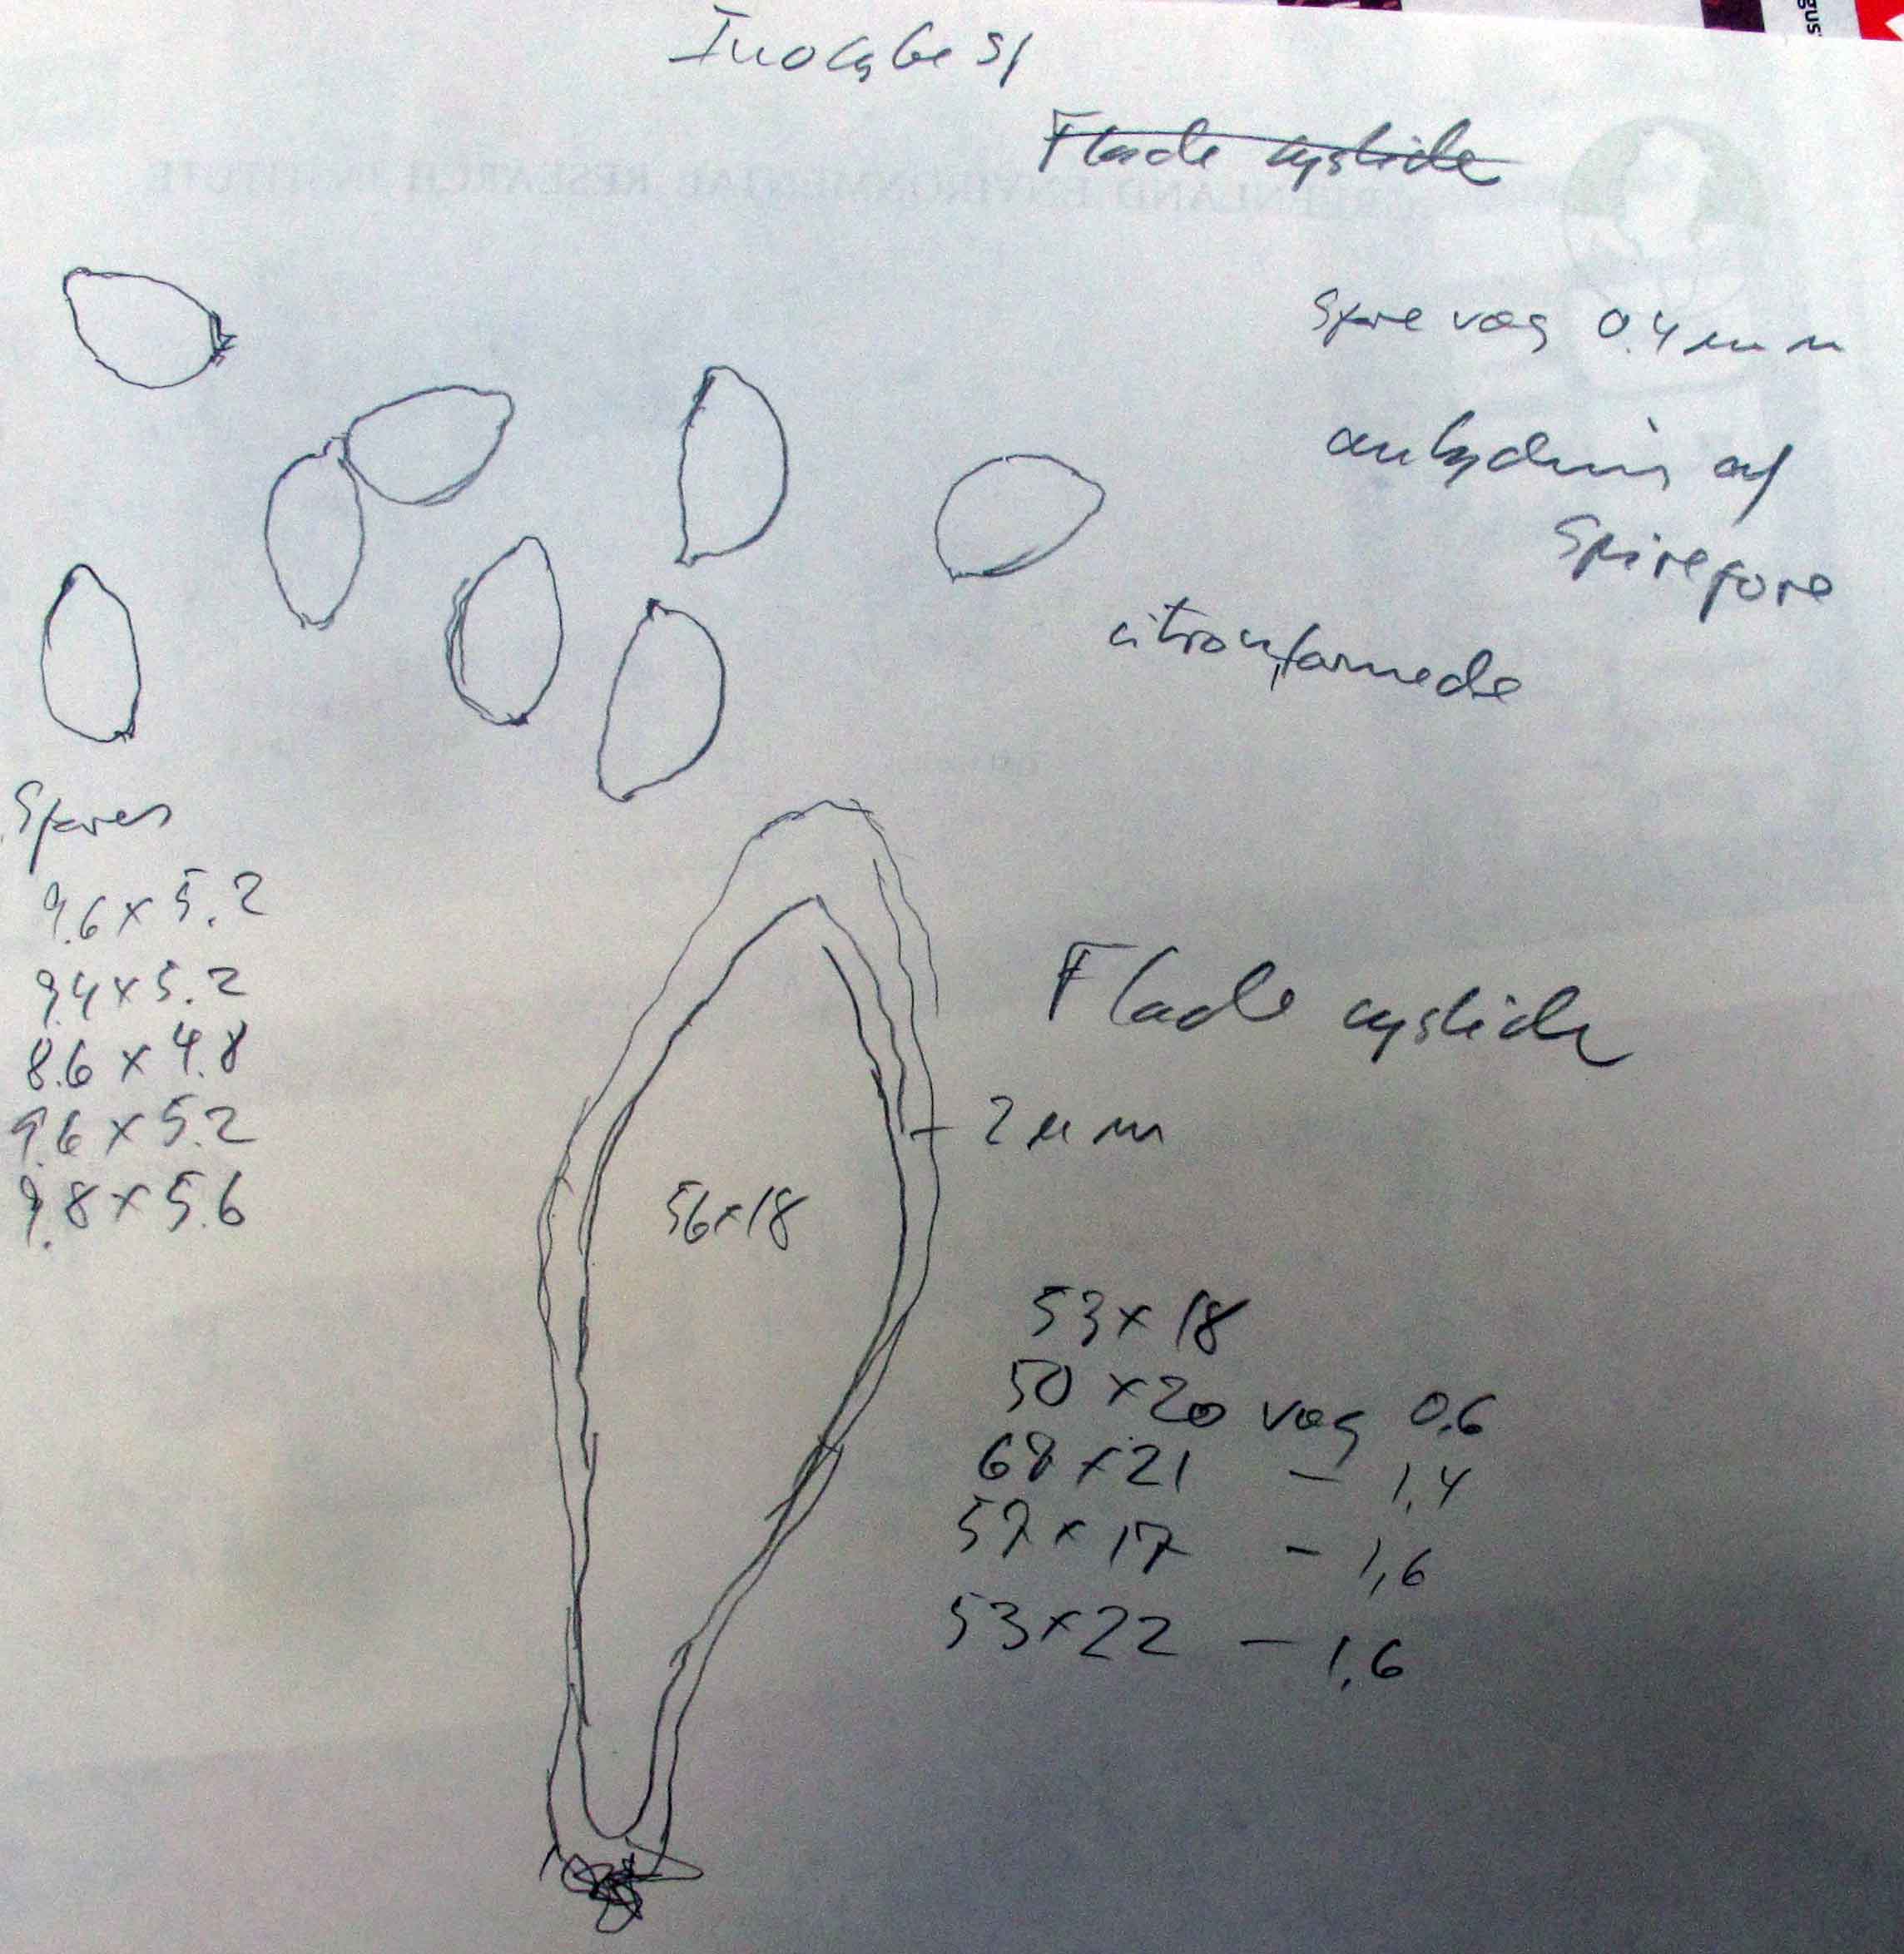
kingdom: Fungi
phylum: Basidiomycota
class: Agaricomycetes
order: Agaricales
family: Inocybaceae
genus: Inocybe
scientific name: Inocybe sindonia
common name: bleg trævlhat
